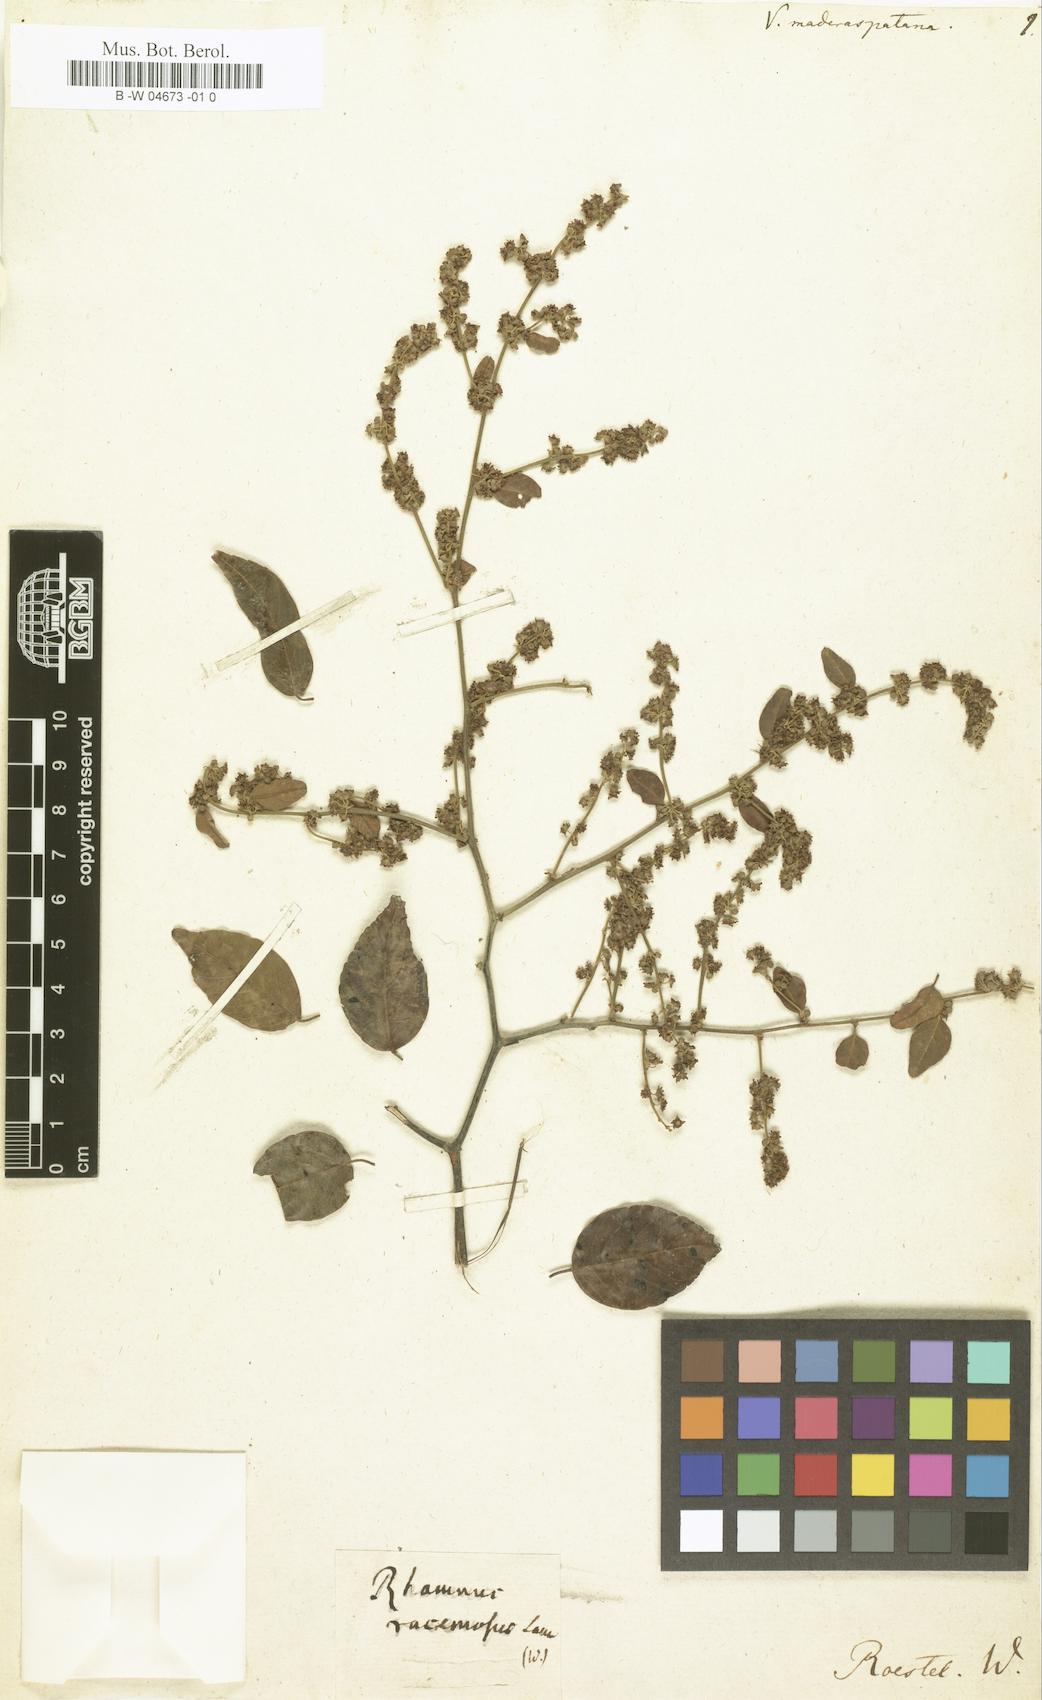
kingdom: Plantae
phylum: Tracheophyta
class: Magnoliopsida
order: Rosales
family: Rhamnaceae
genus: Ventilago
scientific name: Ventilago maderaspatana
